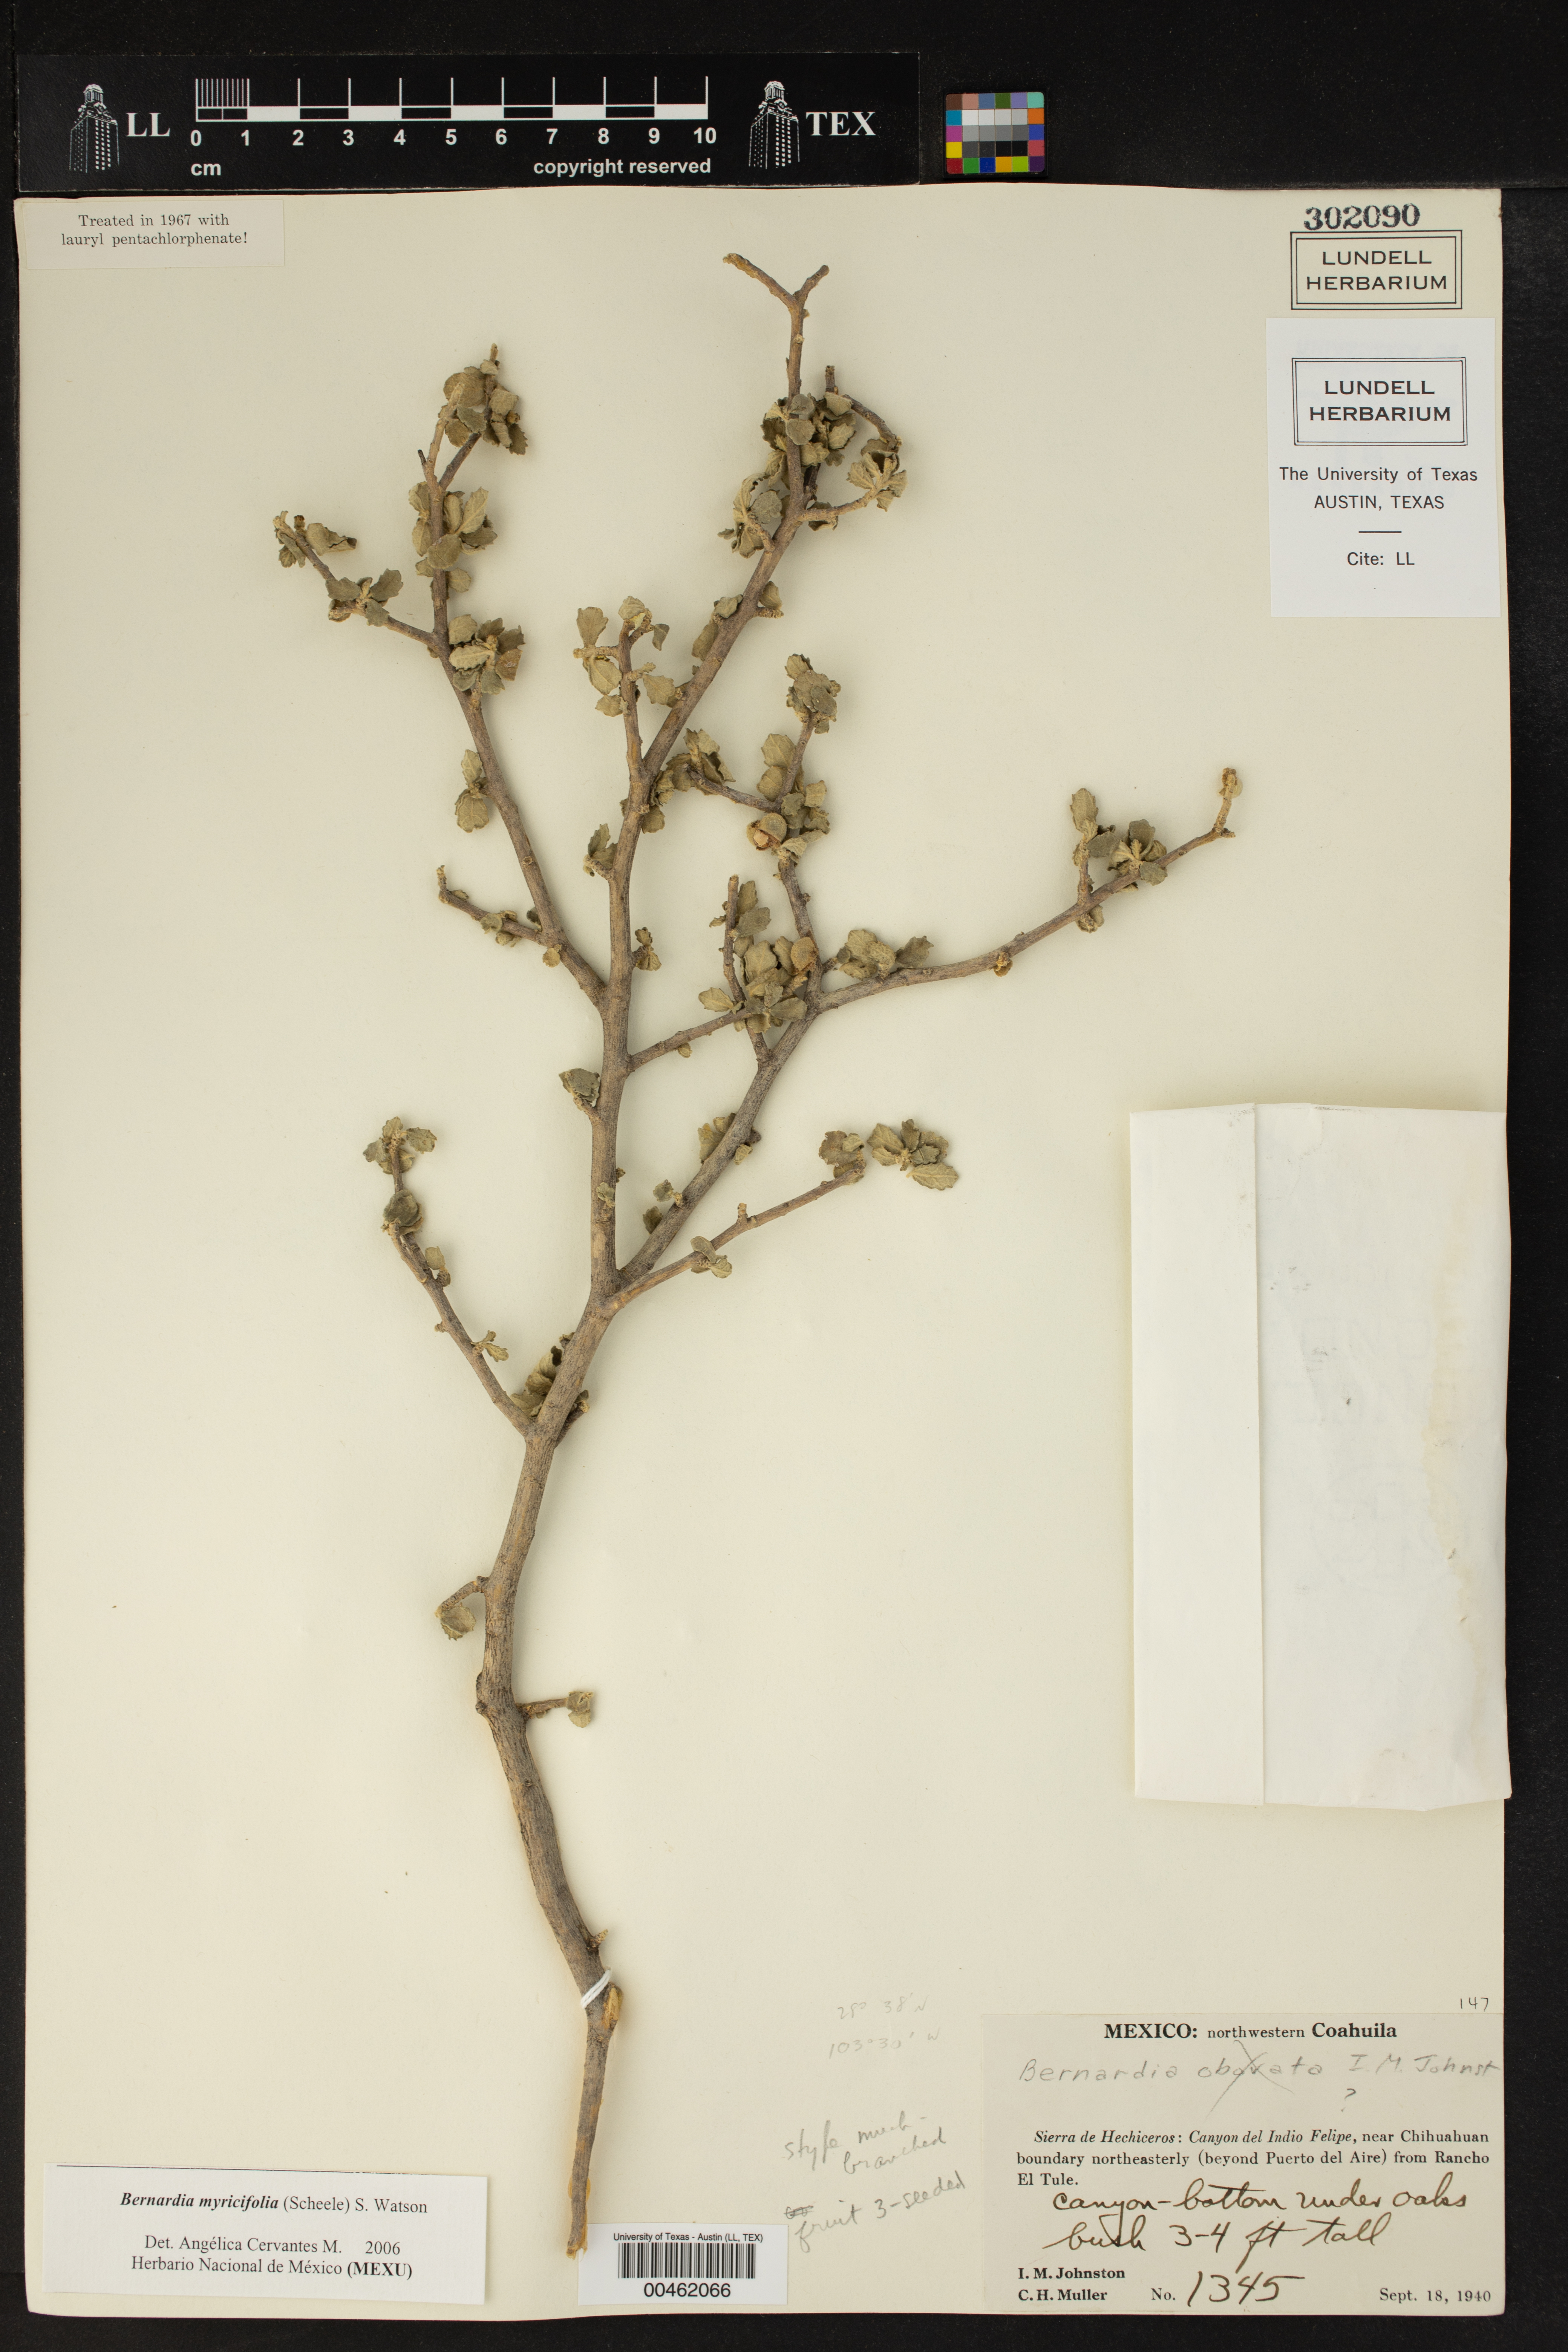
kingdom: Plantae
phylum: Tracheophyta
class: Magnoliopsida
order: Malpighiales
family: Euphorbiaceae
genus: Bernardia
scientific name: Bernardia myricifolia
